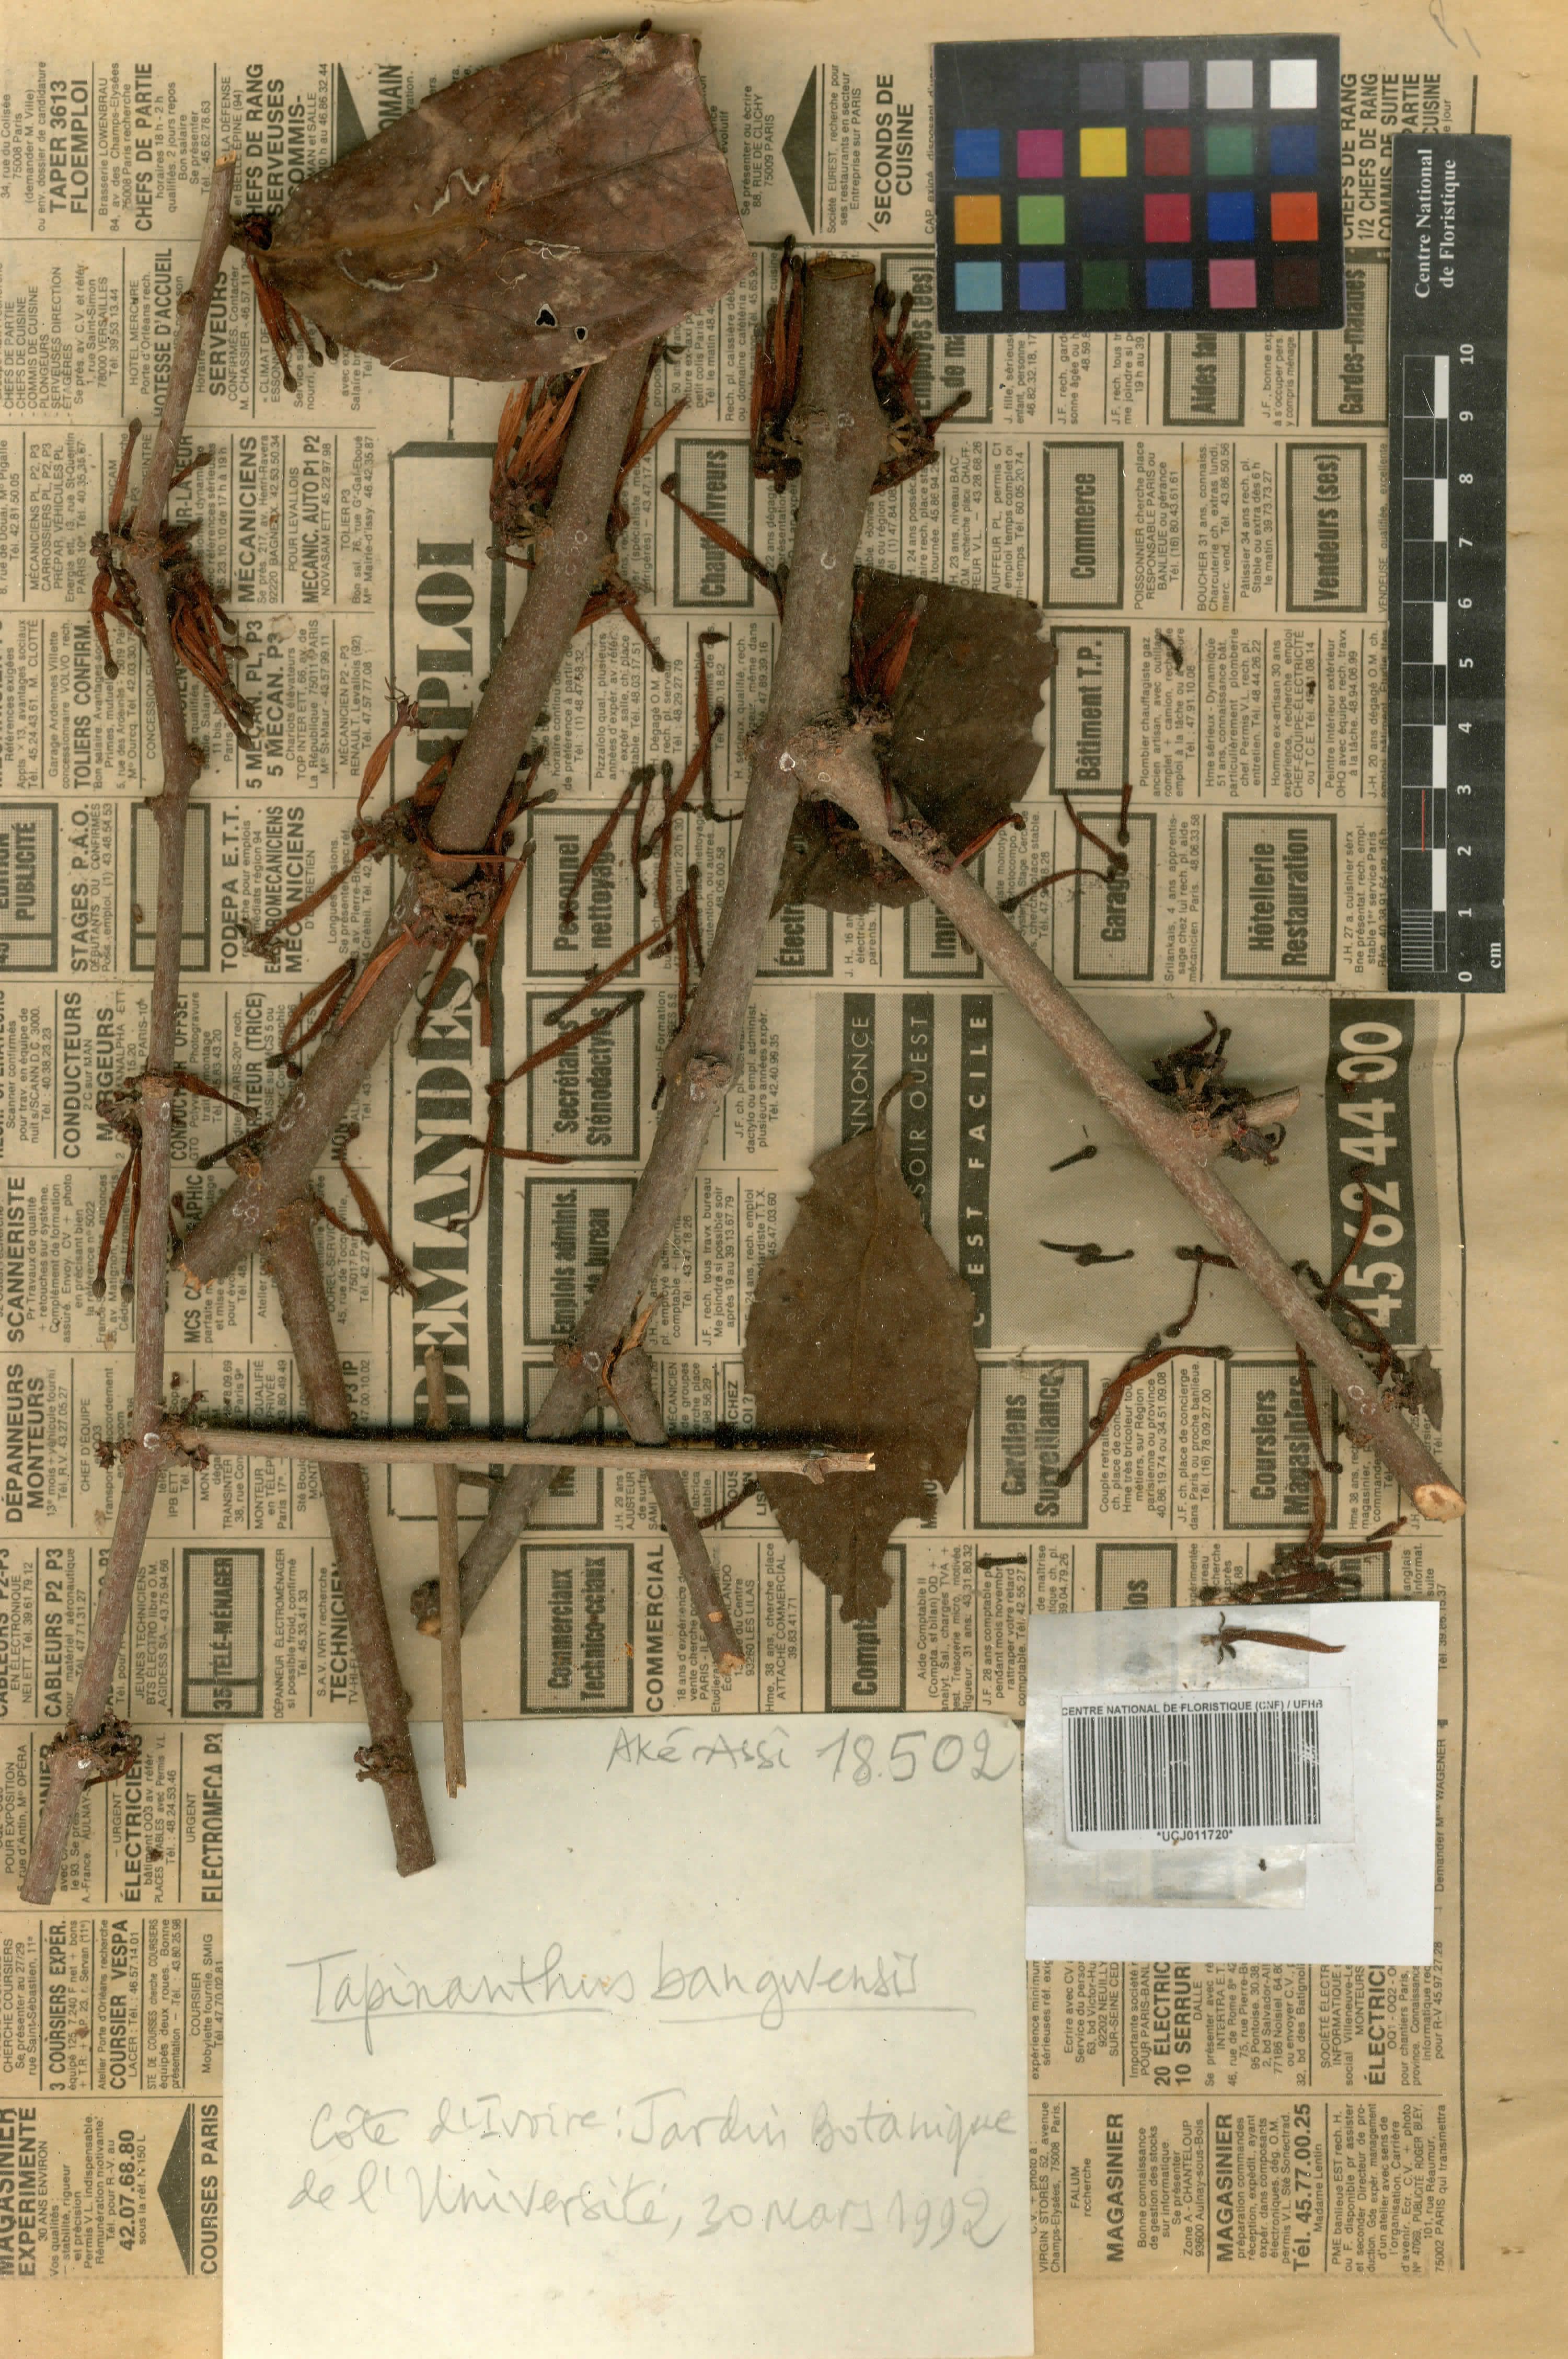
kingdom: Plantae
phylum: Tracheophyta
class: Magnoliopsida
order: Santalales
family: Loranthaceae
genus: Tapinanthus
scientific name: Tapinanthus bangwensis
